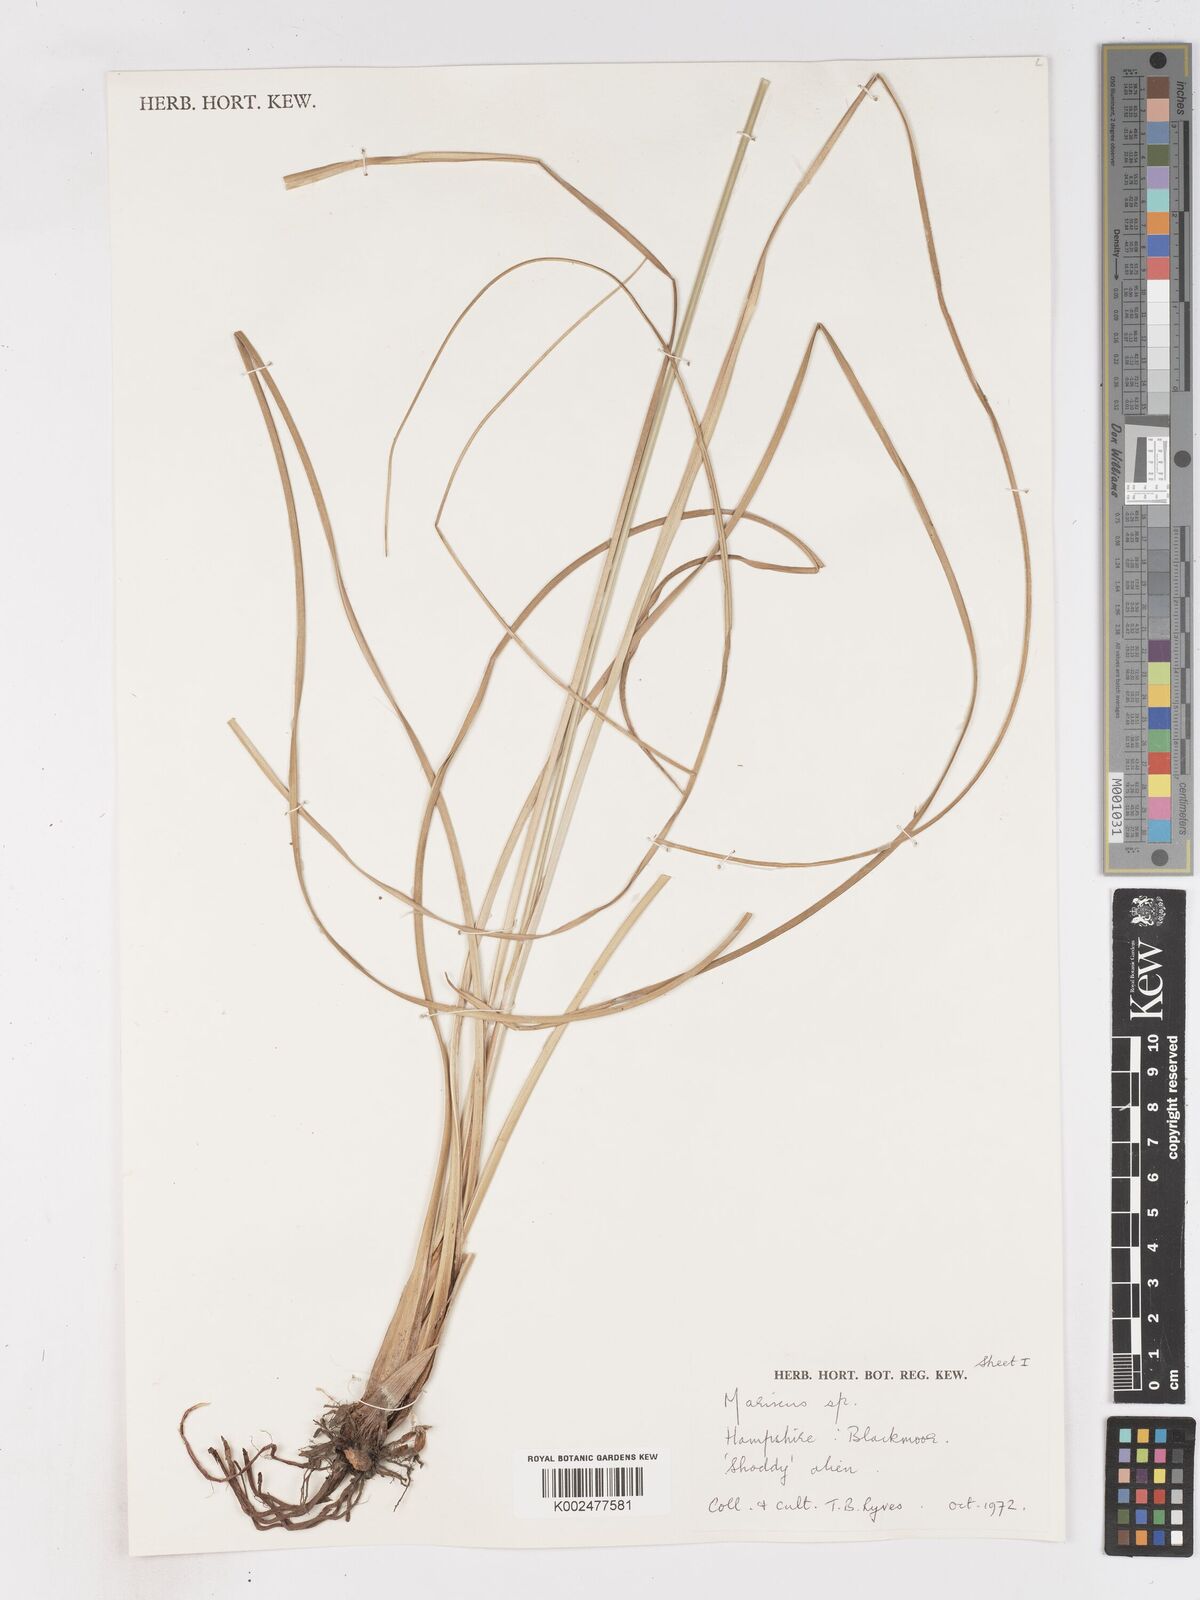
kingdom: Plantae
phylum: Tracheophyta
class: Liliopsida
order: Poales
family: Cyperaceae
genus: Cyperus
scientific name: Cyperus lhotskyanus
